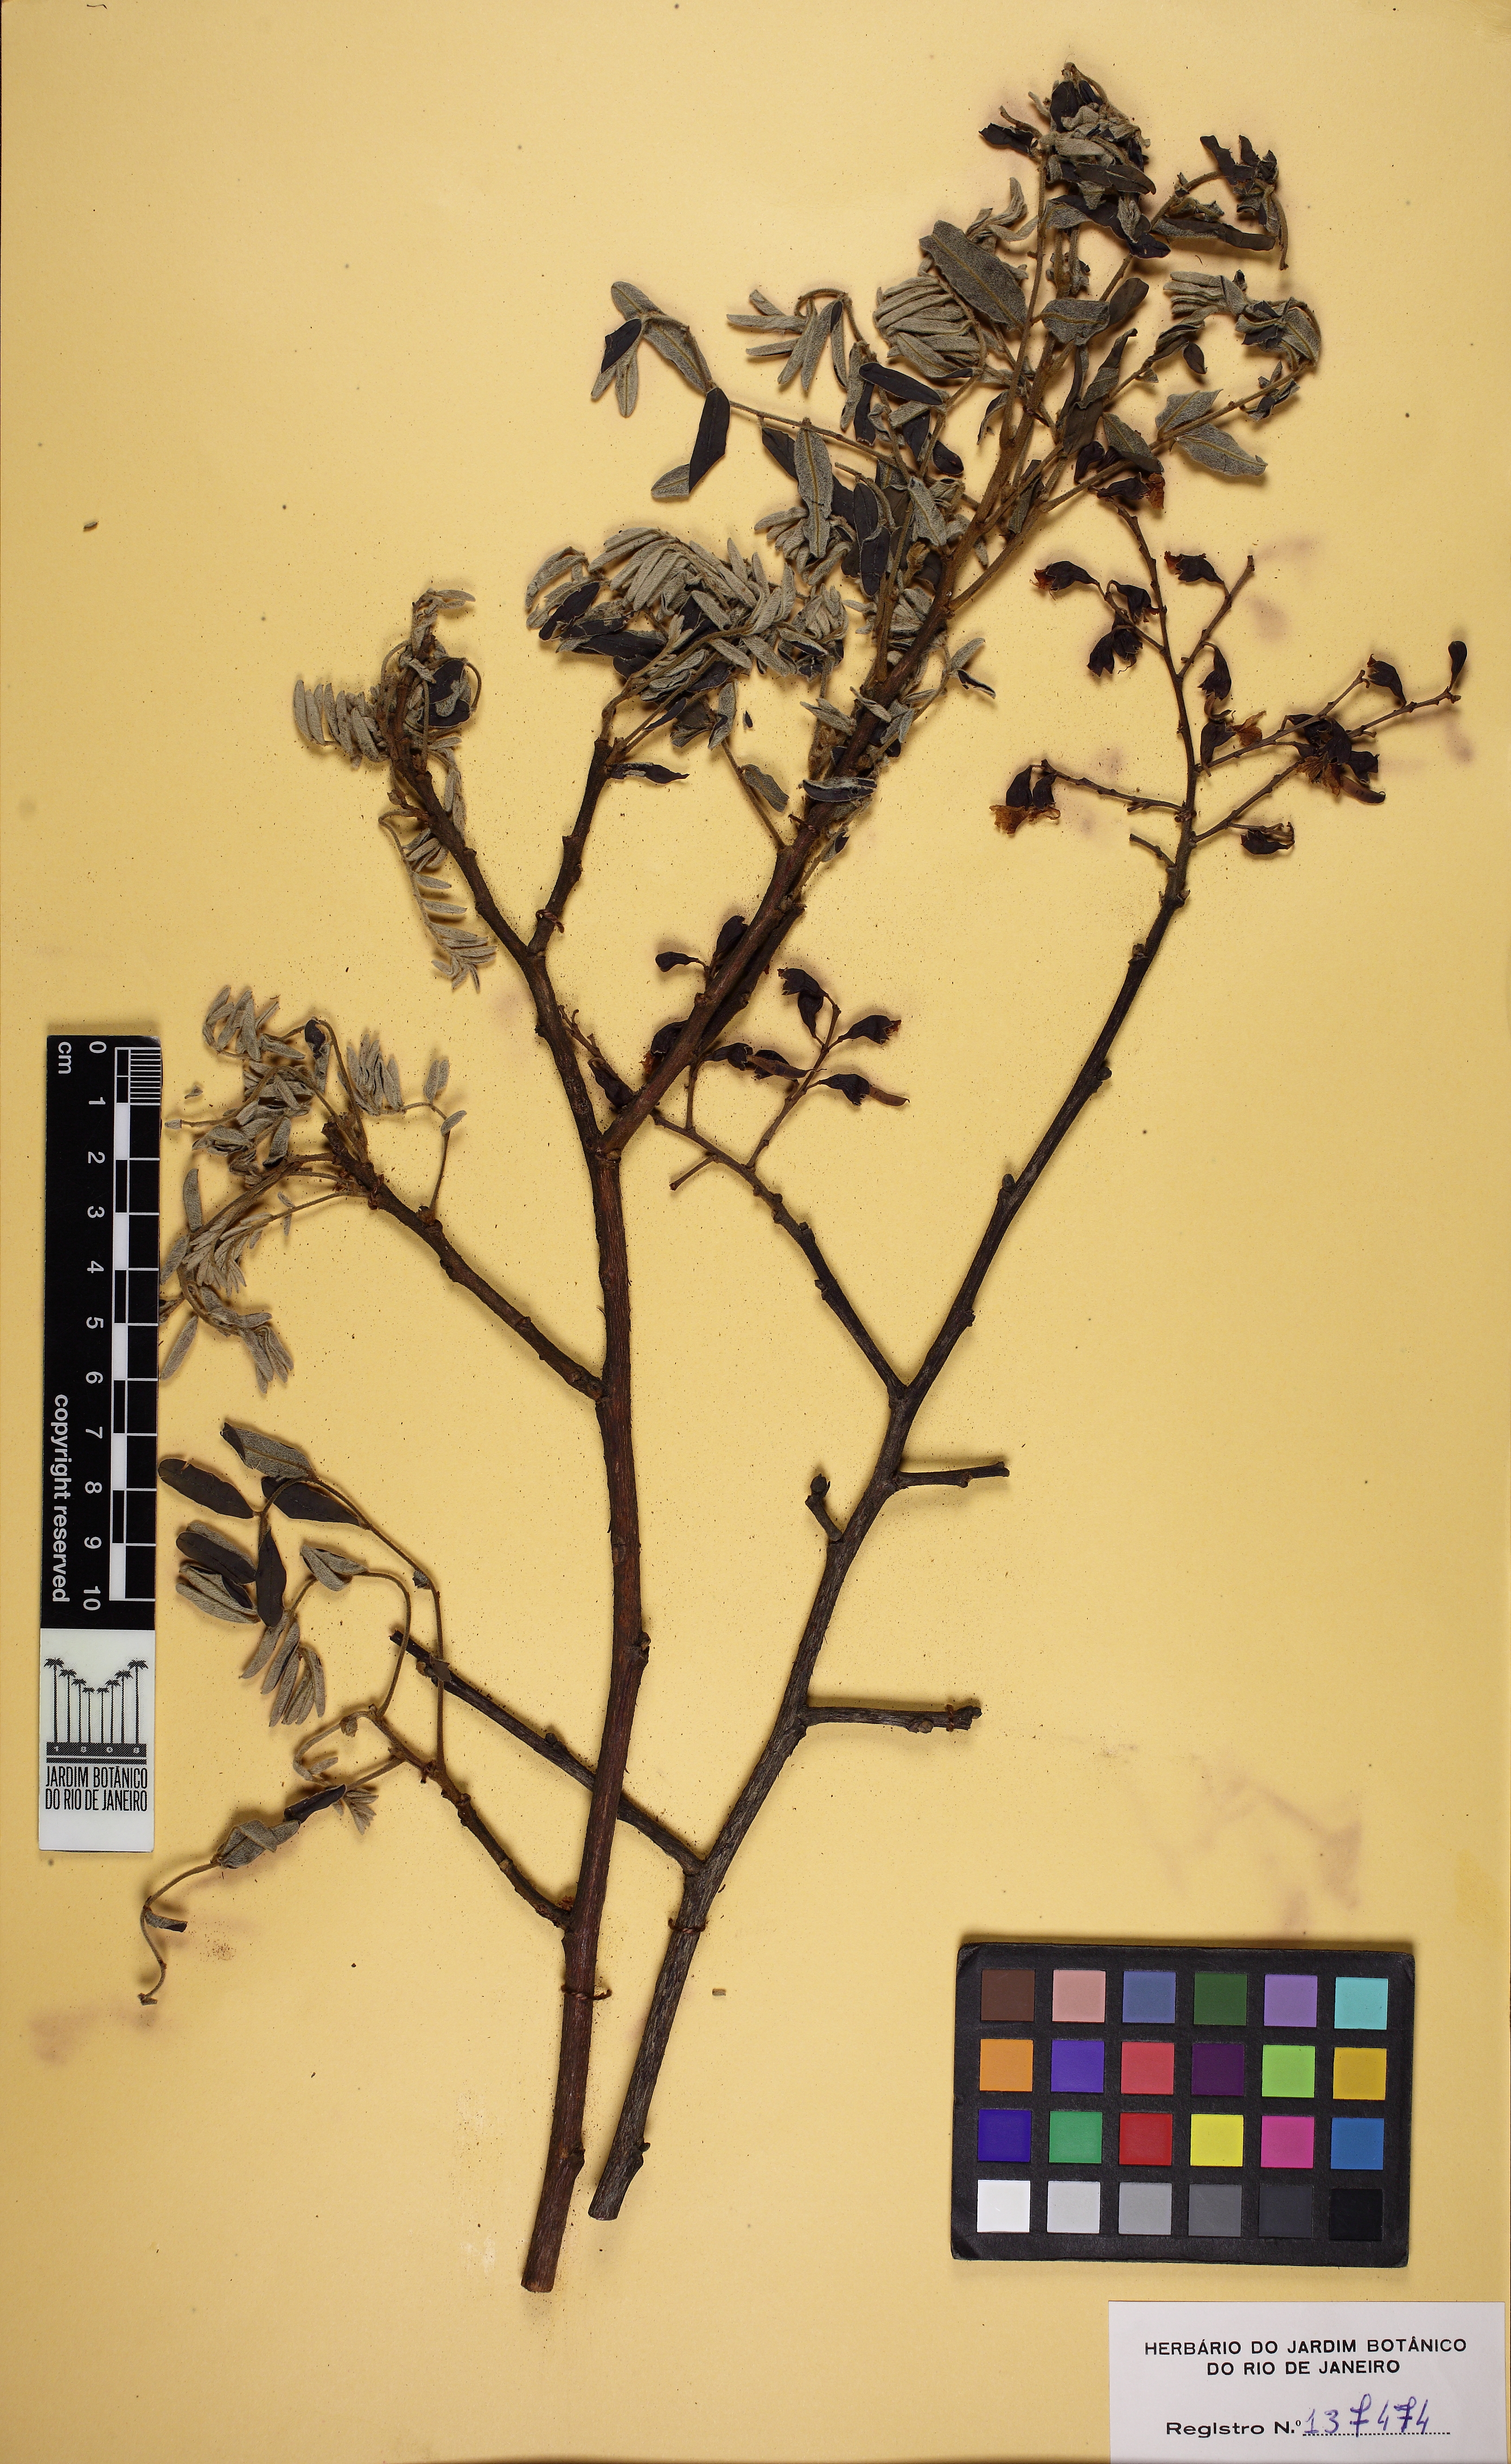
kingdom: Plantae
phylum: Tracheophyta
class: Magnoliopsida
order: Fabales
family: Fabaceae
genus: Bowdichia
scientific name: Bowdichia
